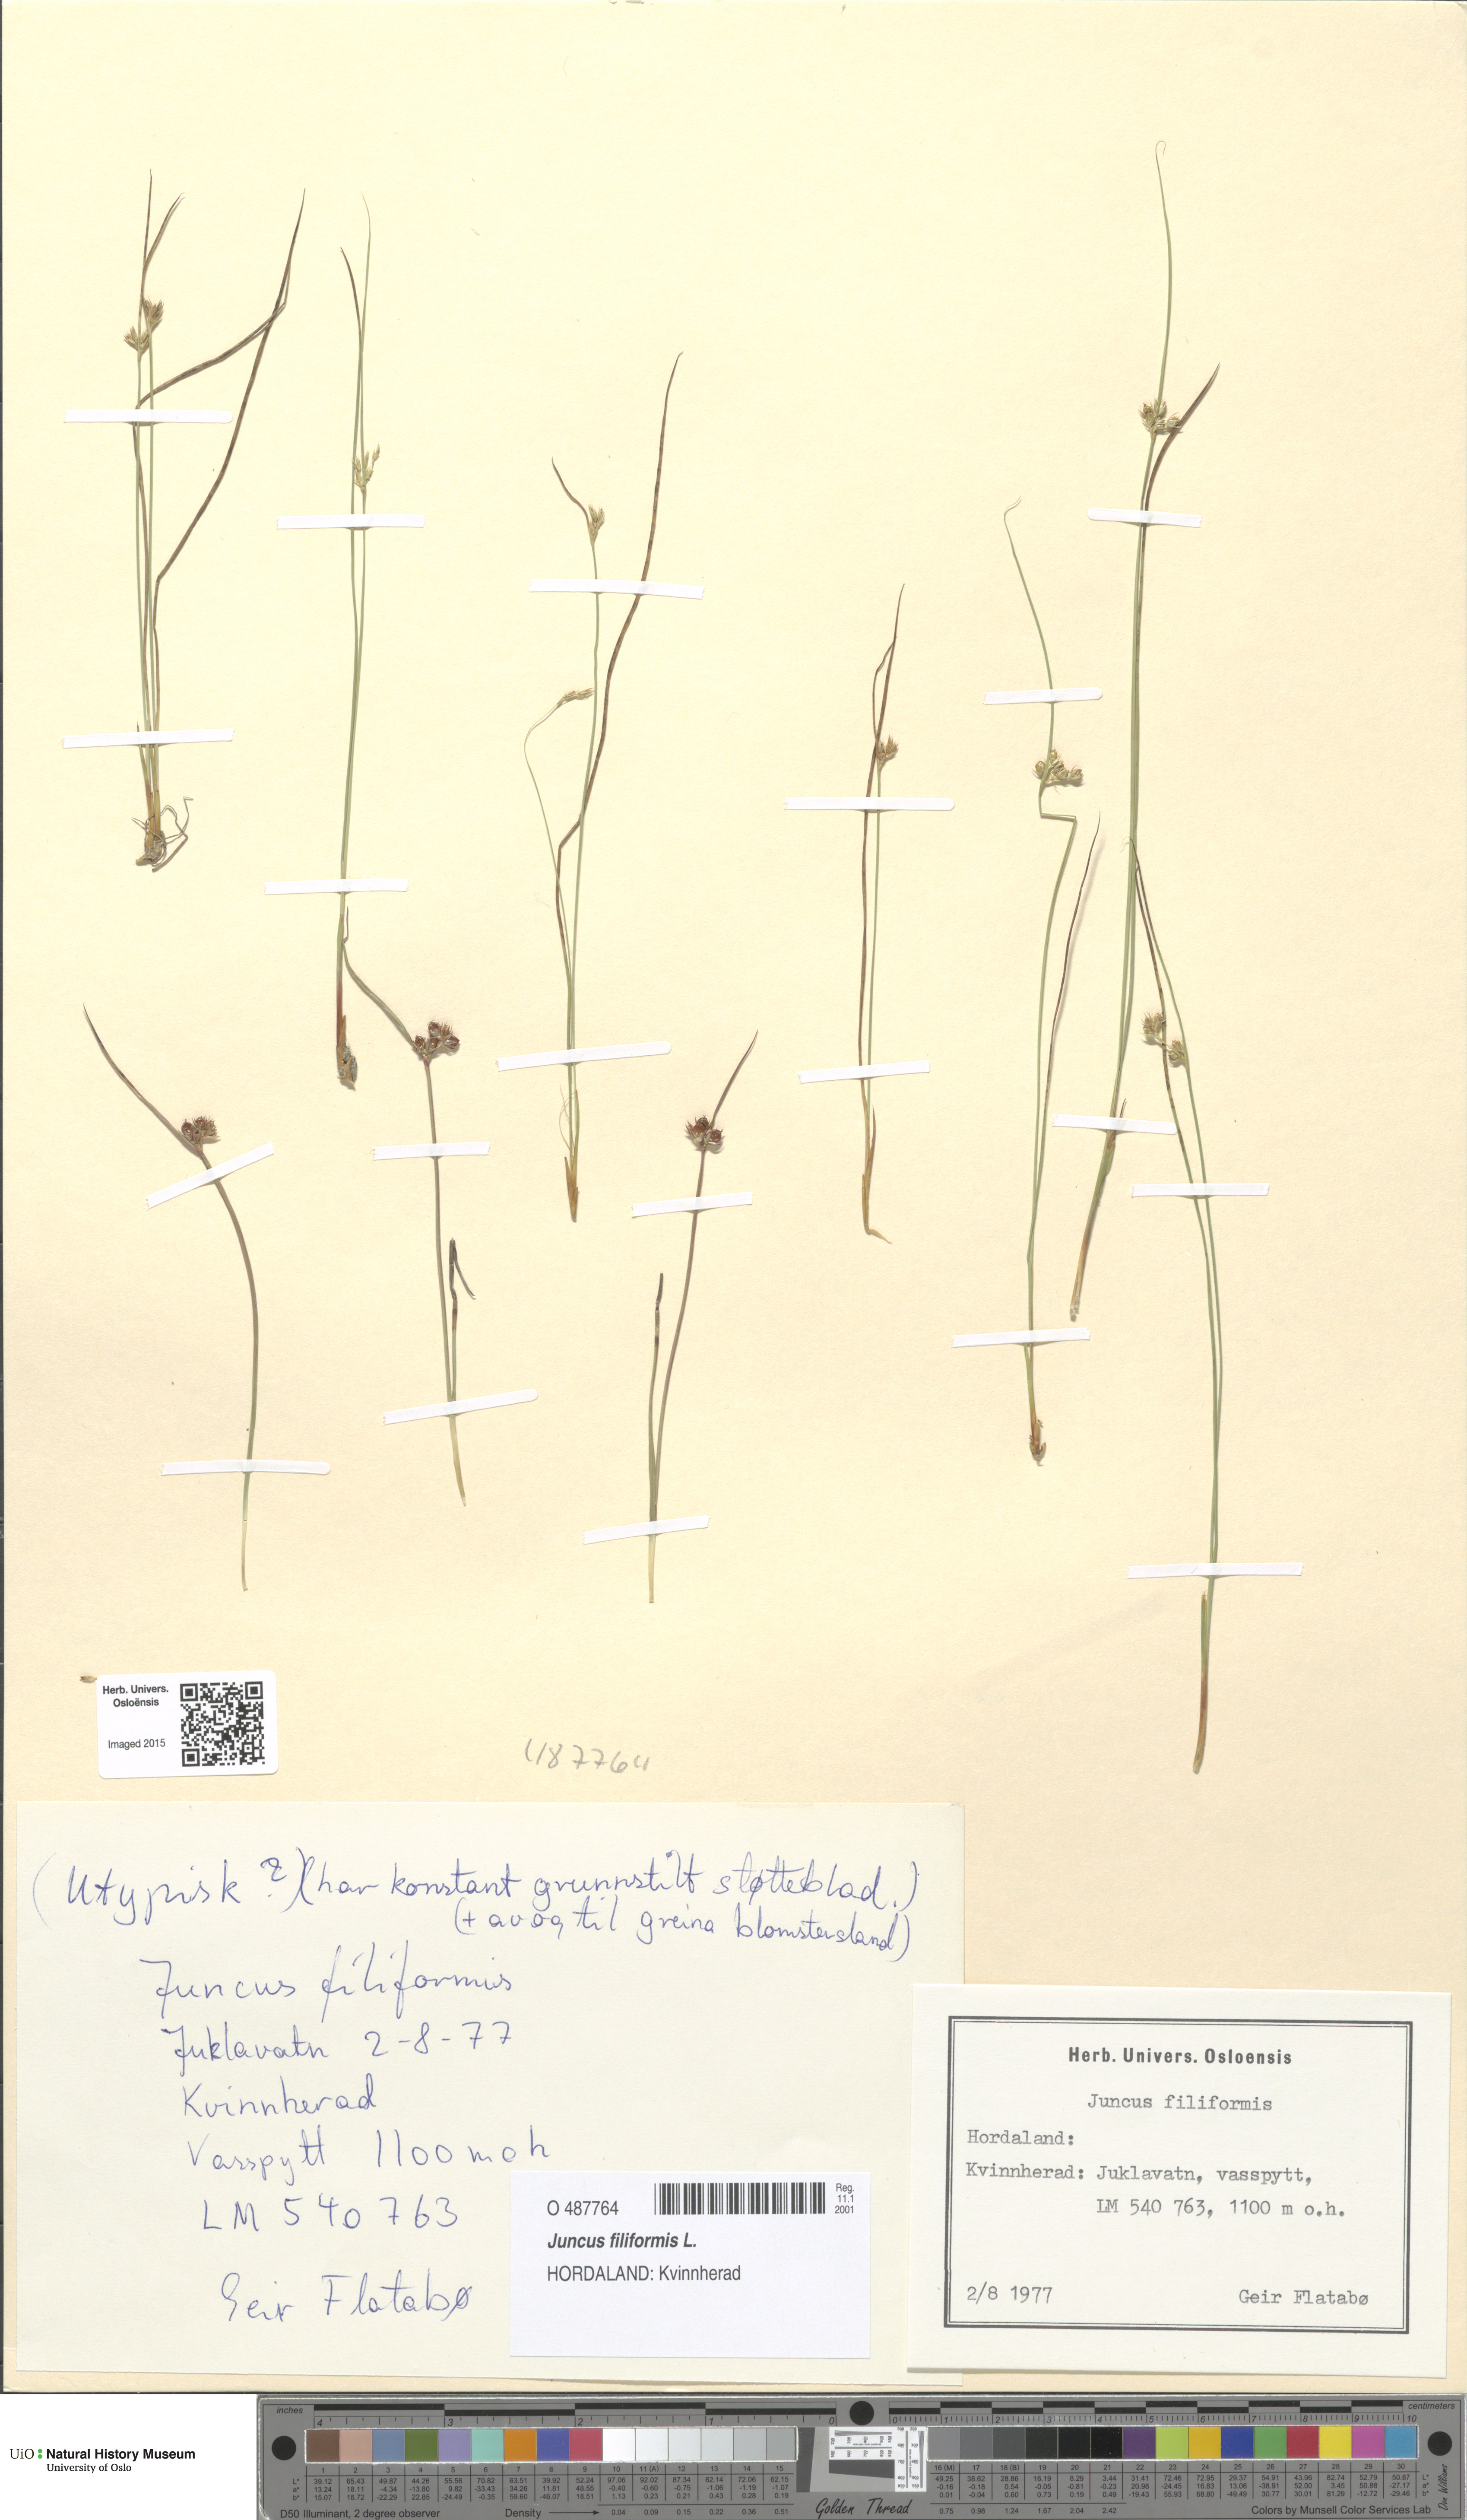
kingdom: Plantae
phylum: Tracheophyta
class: Liliopsida
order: Poales
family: Juncaceae
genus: Juncus
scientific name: Juncus filiformis
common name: Thread rush
